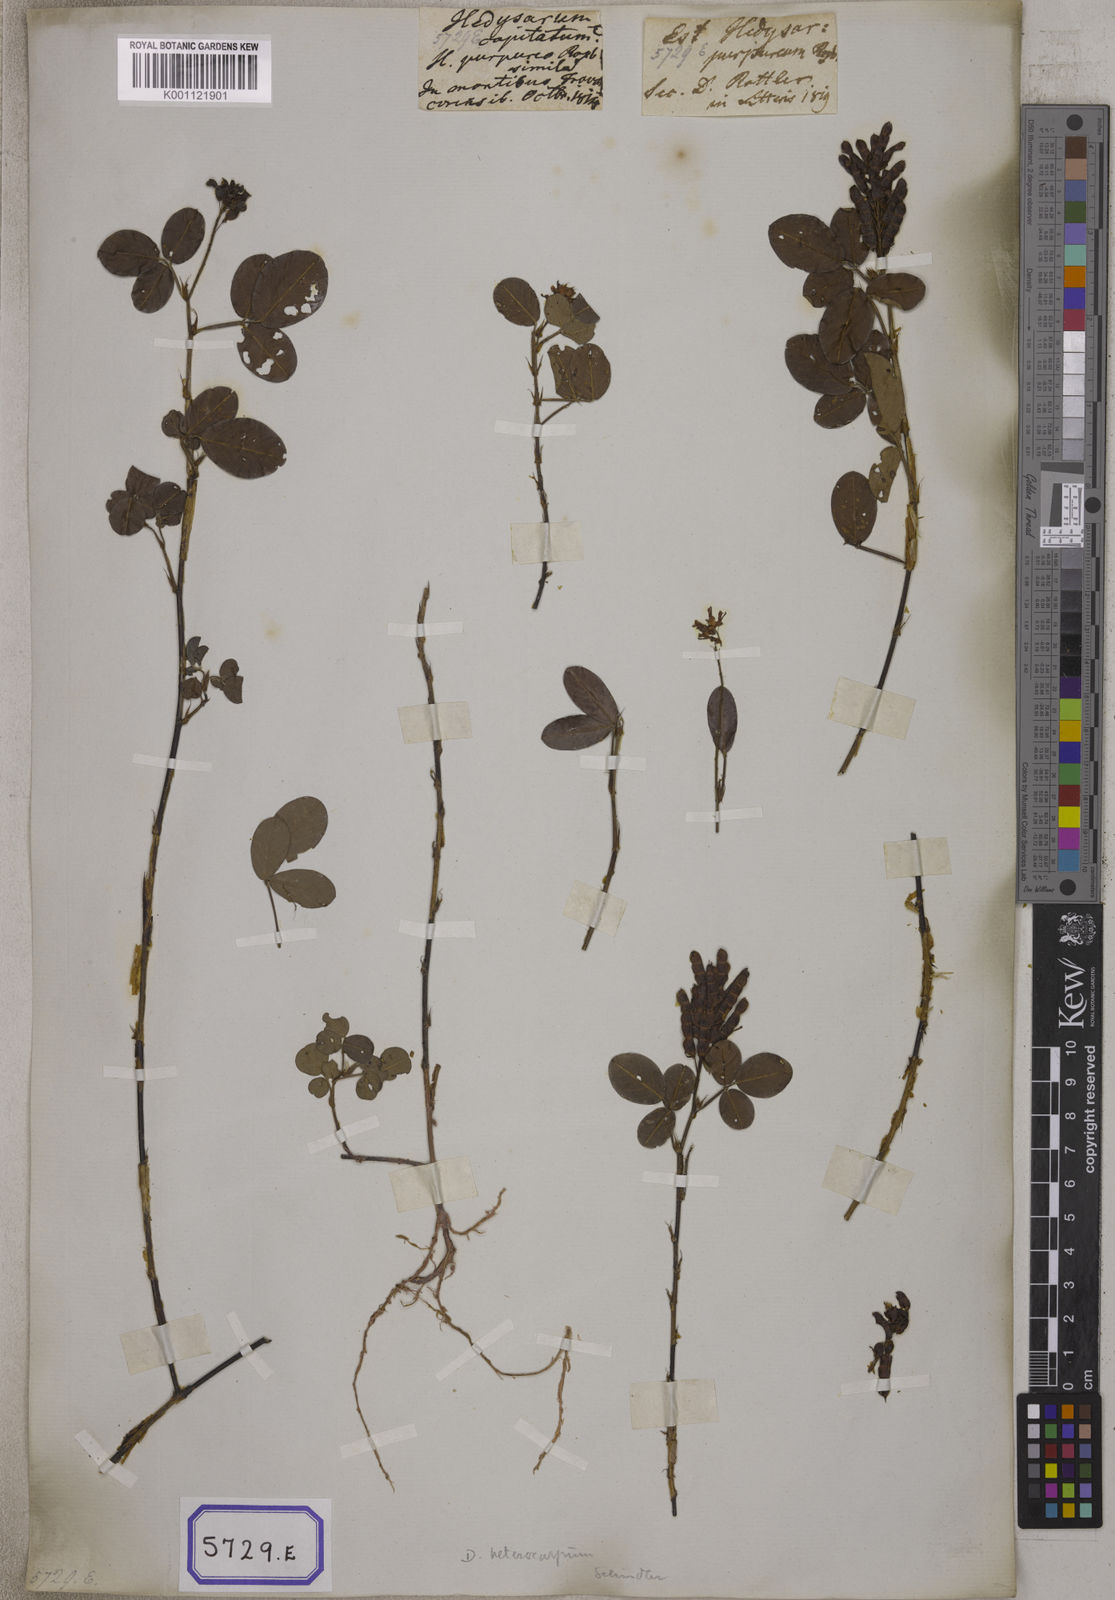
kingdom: Plantae
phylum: Tracheophyta
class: Magnoliopsida
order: Fabales
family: Fabaceae
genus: Desmodium
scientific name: Desmodium
